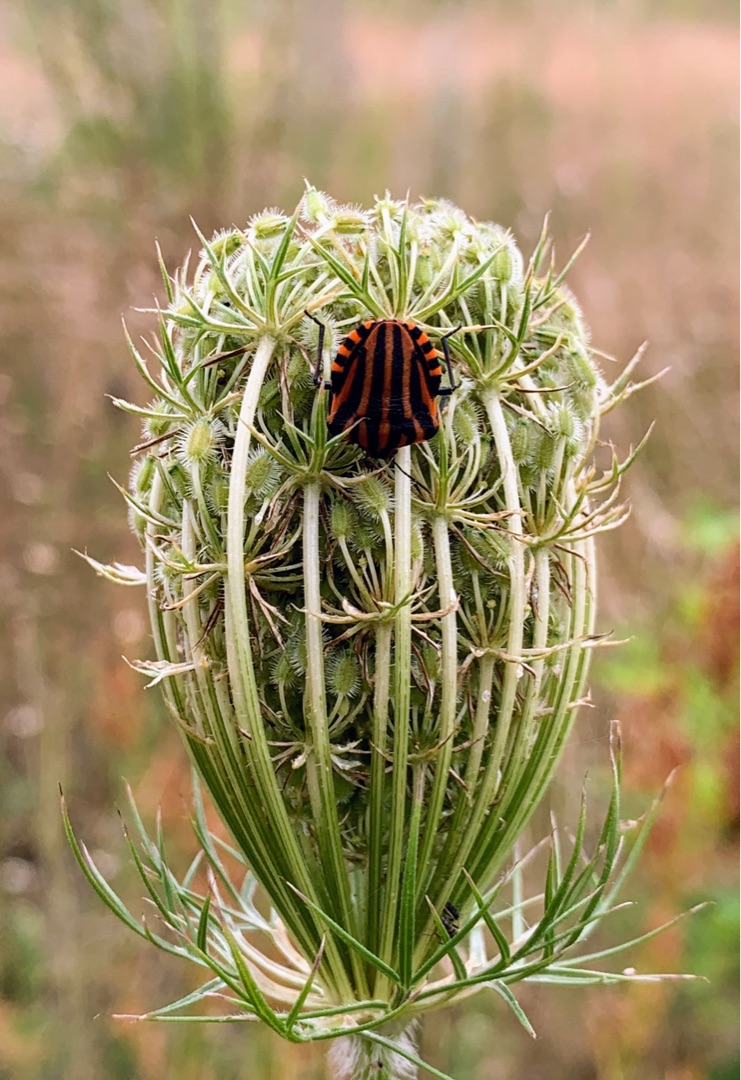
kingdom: Animalia
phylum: Arthropoda
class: Insecta
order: Hemiptera
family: Pentatomidae
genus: Graphosoma
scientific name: Graphosoma italicum
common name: Stribetæge
